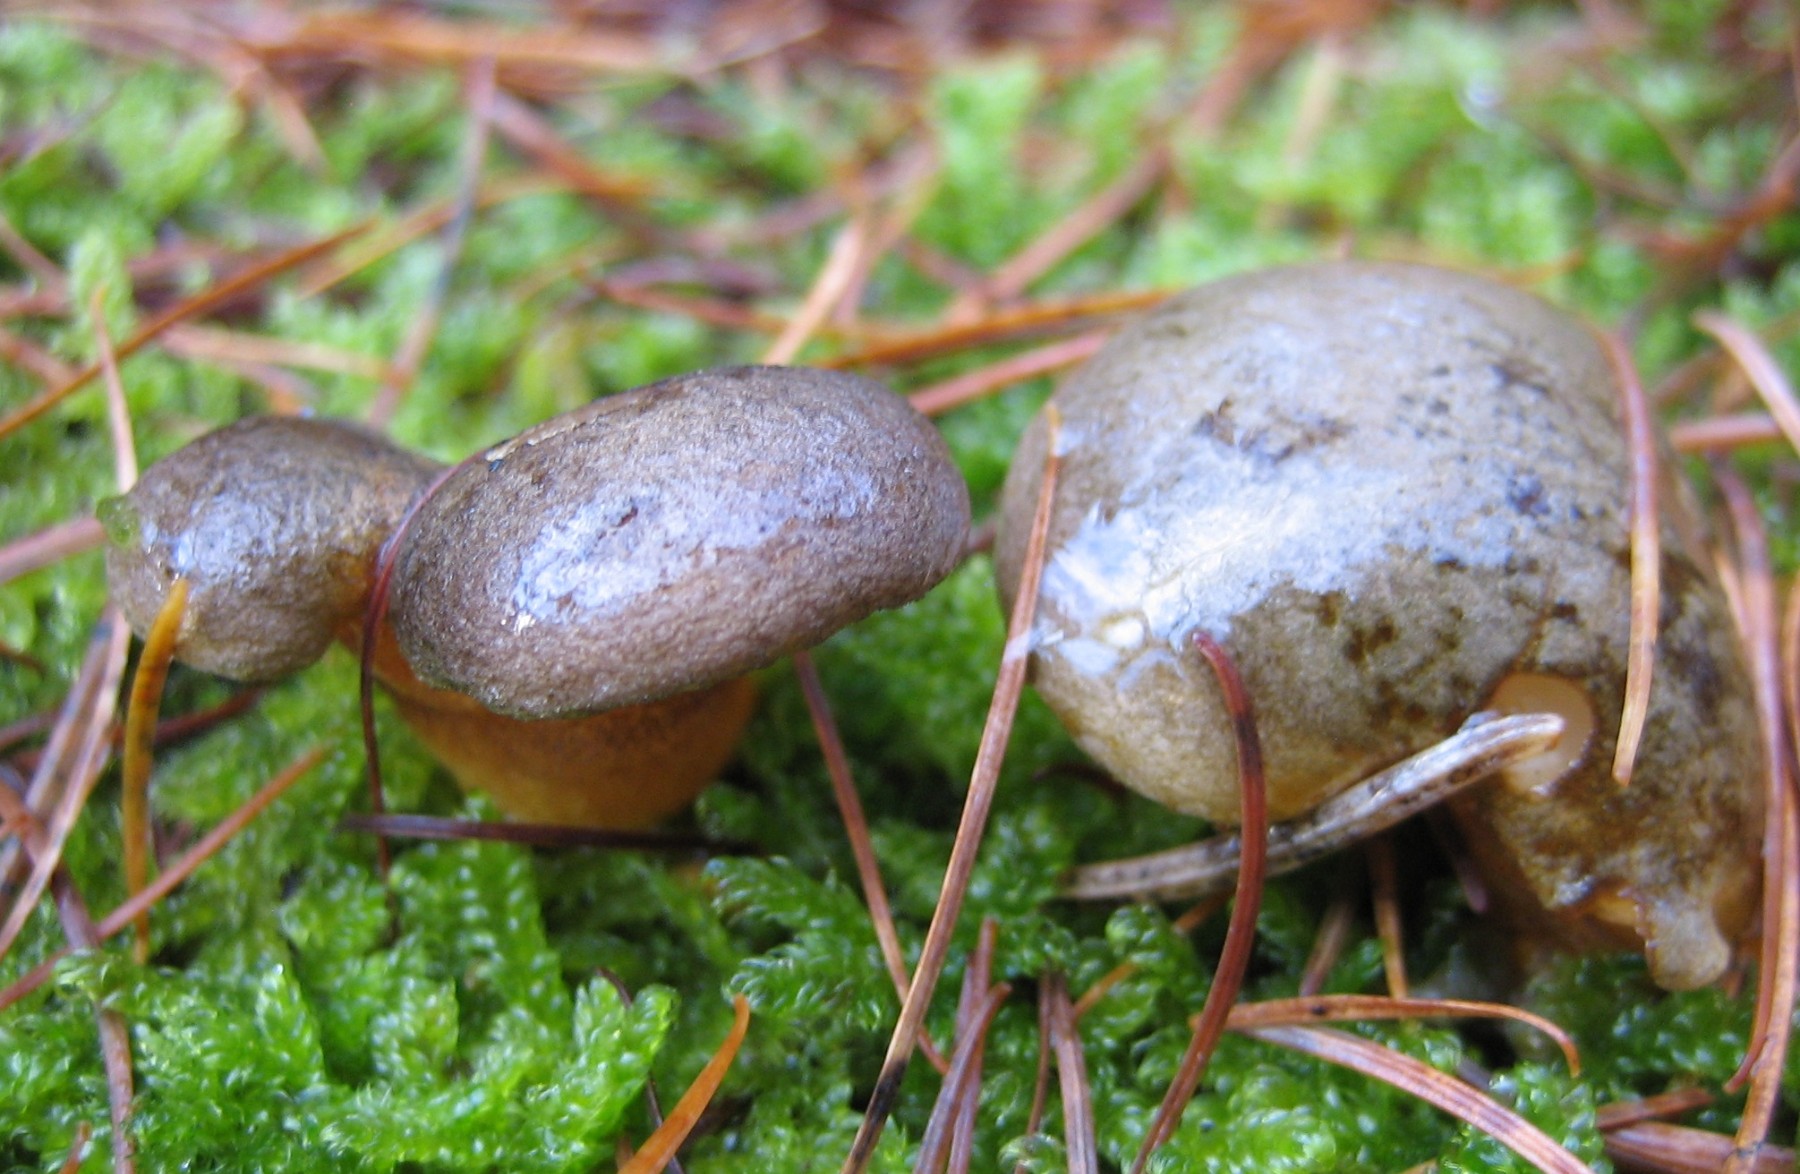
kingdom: Fungi
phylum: Basidiomycota
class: Agaricomycetes
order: Agaricales
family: Sarcomyxaceae
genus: Sarcomyxa
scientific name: Sarcomyxa serotina
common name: gummihat
